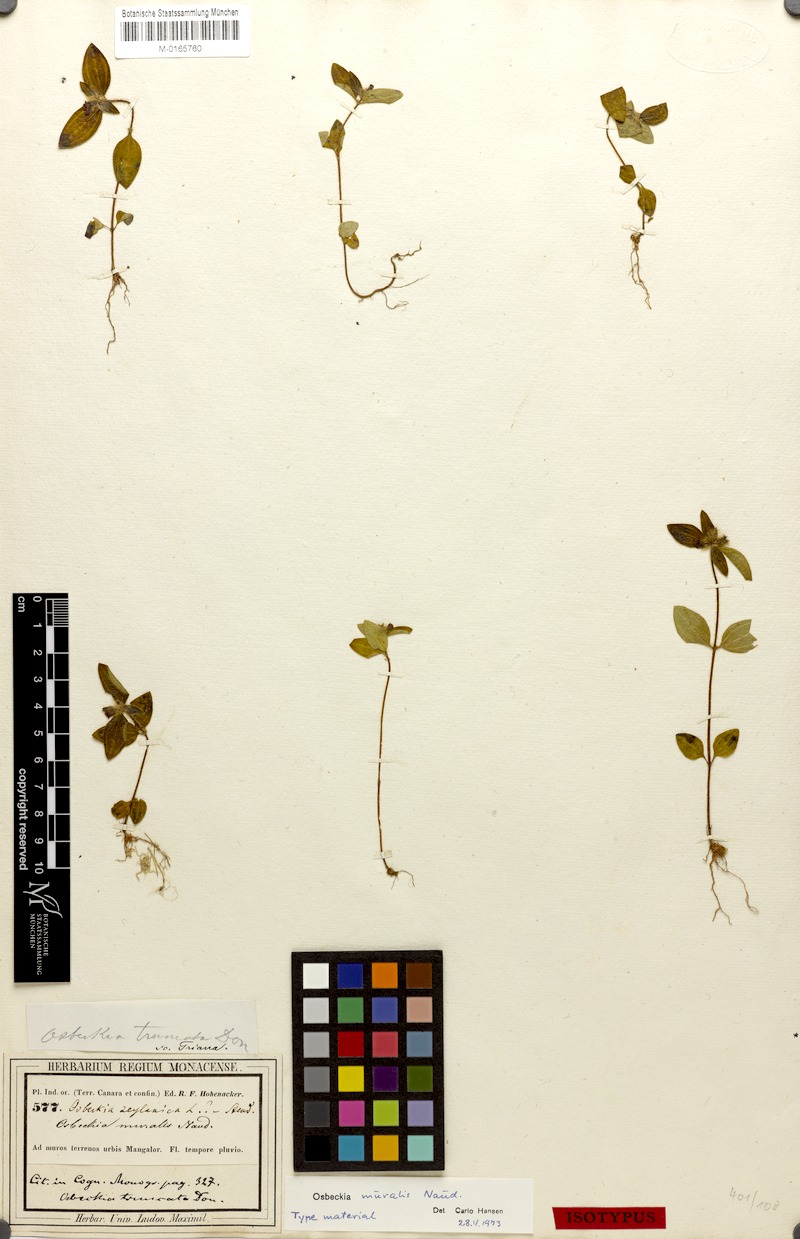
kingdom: Plantae
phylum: Tracheophyta
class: Magnoliopsida
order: Myrtales
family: Melastomataceae
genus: Osbeckia
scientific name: Osbeckia muralis
